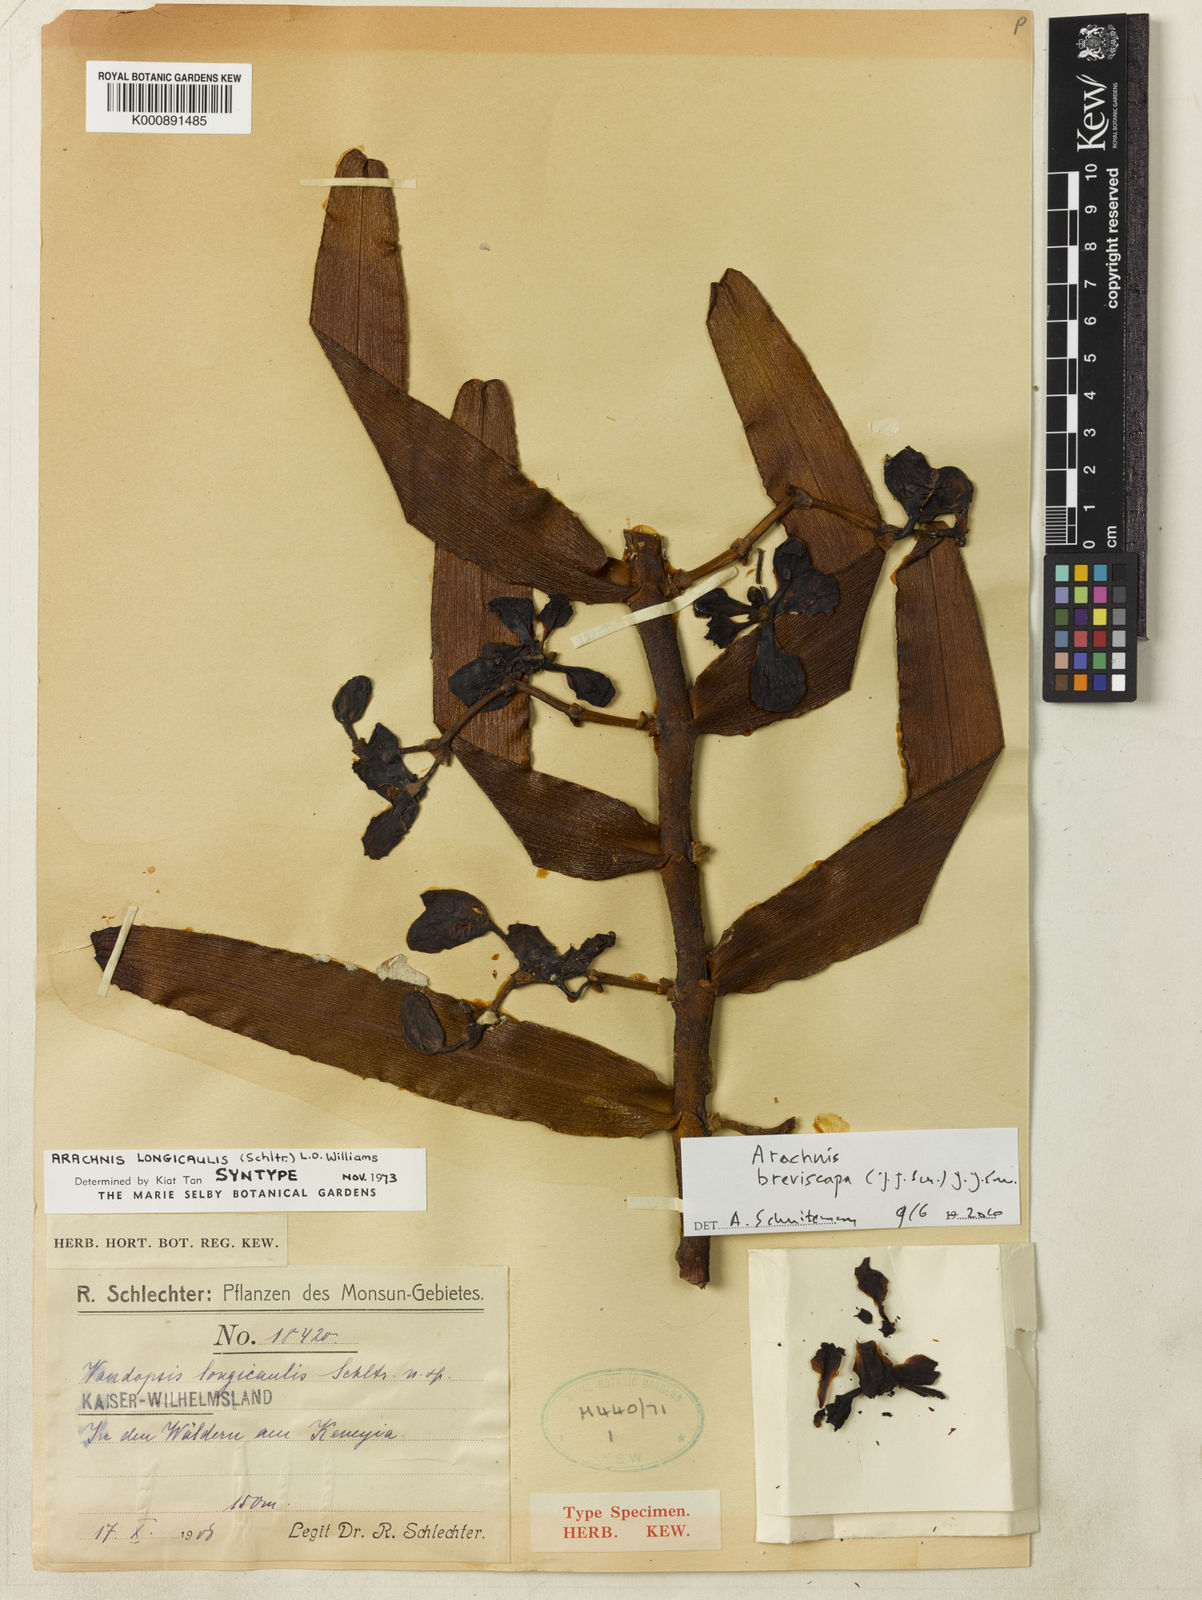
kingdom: Plantae
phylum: Tracheophyta
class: Liliopsida
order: Asparagales
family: Orchidaceae
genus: Dimorphorchis
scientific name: Dimorphorchis breviscapa
